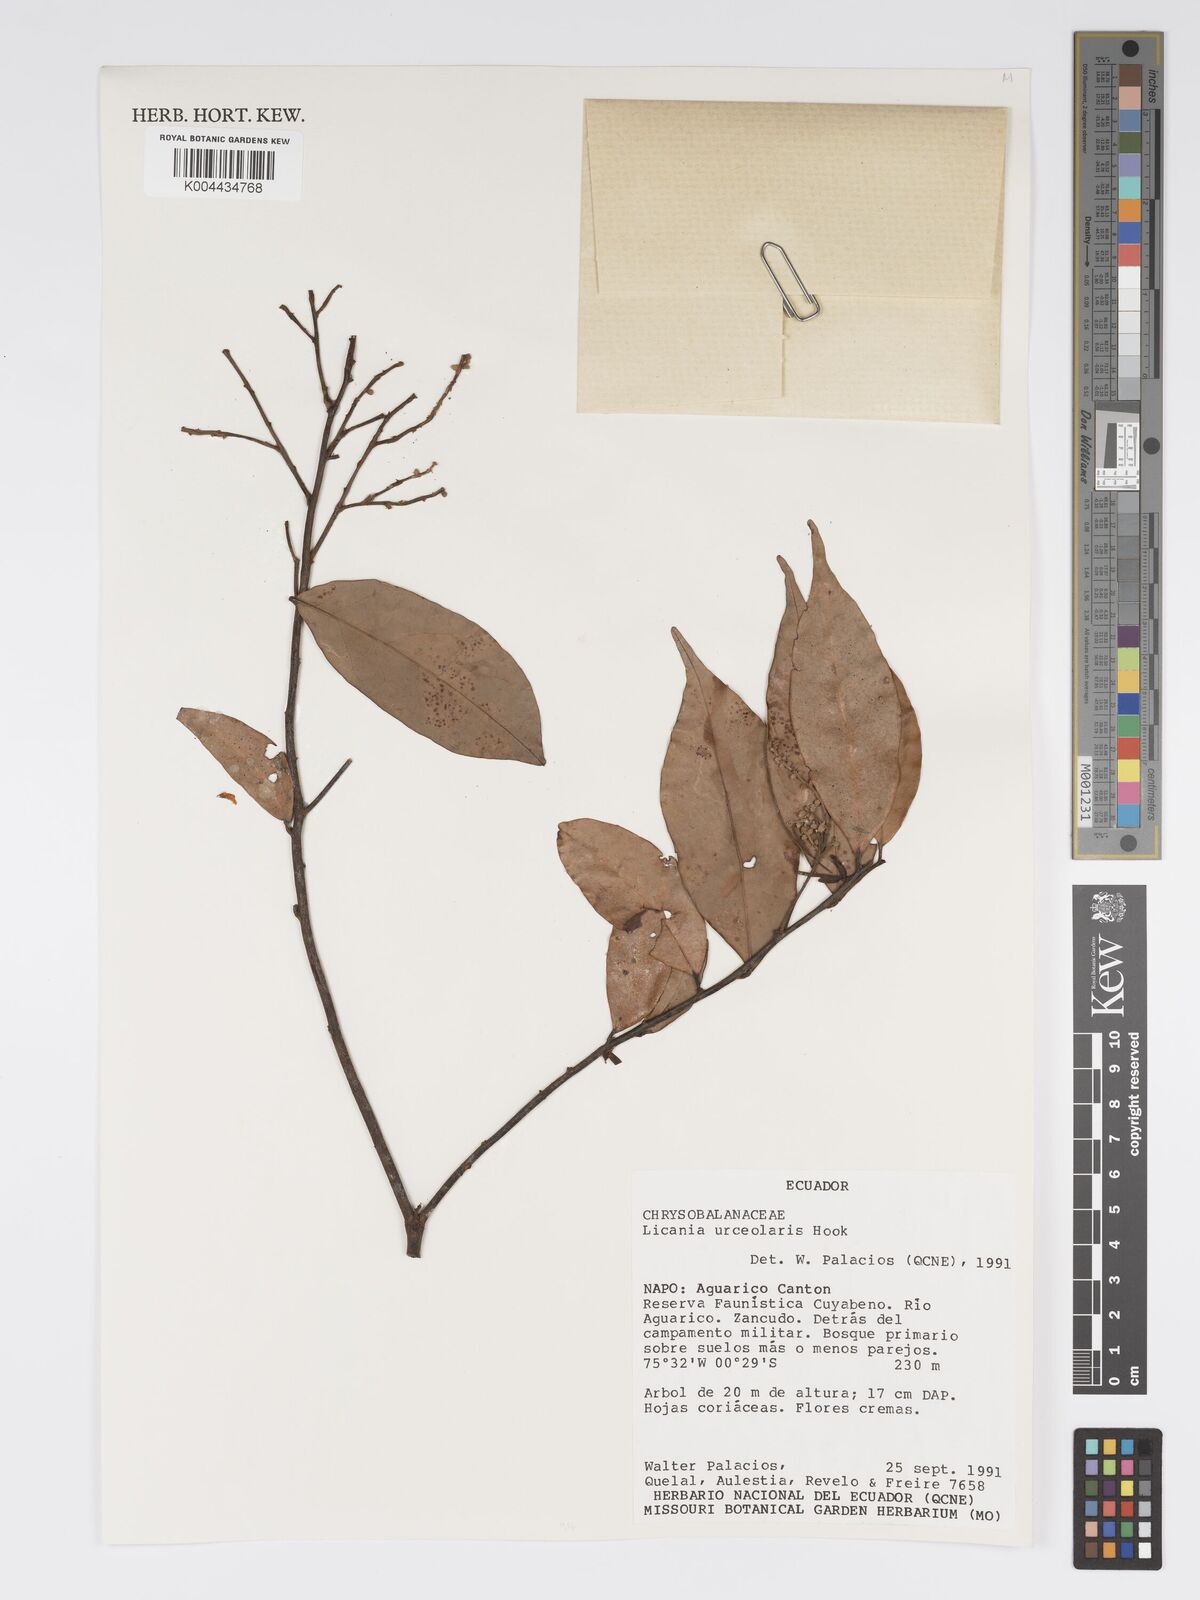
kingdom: Plantae
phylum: Tracheophyta
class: Magnoliopsida
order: Malpighiales
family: Chrysobalanaceae
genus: Licania
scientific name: Licania urceolaris
